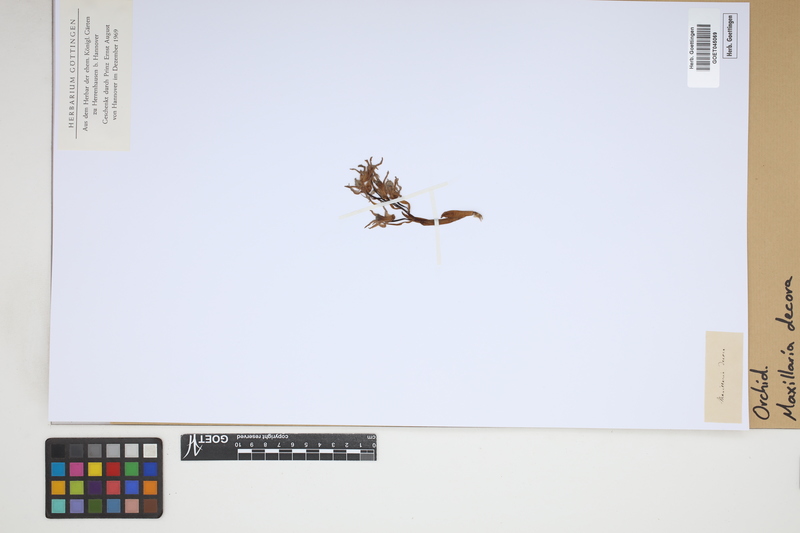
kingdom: Plantae
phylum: Tracheophyta
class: Liliopsida
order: Asparagales
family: Orchidaceae
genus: Maxillaria
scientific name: Maxillaria
